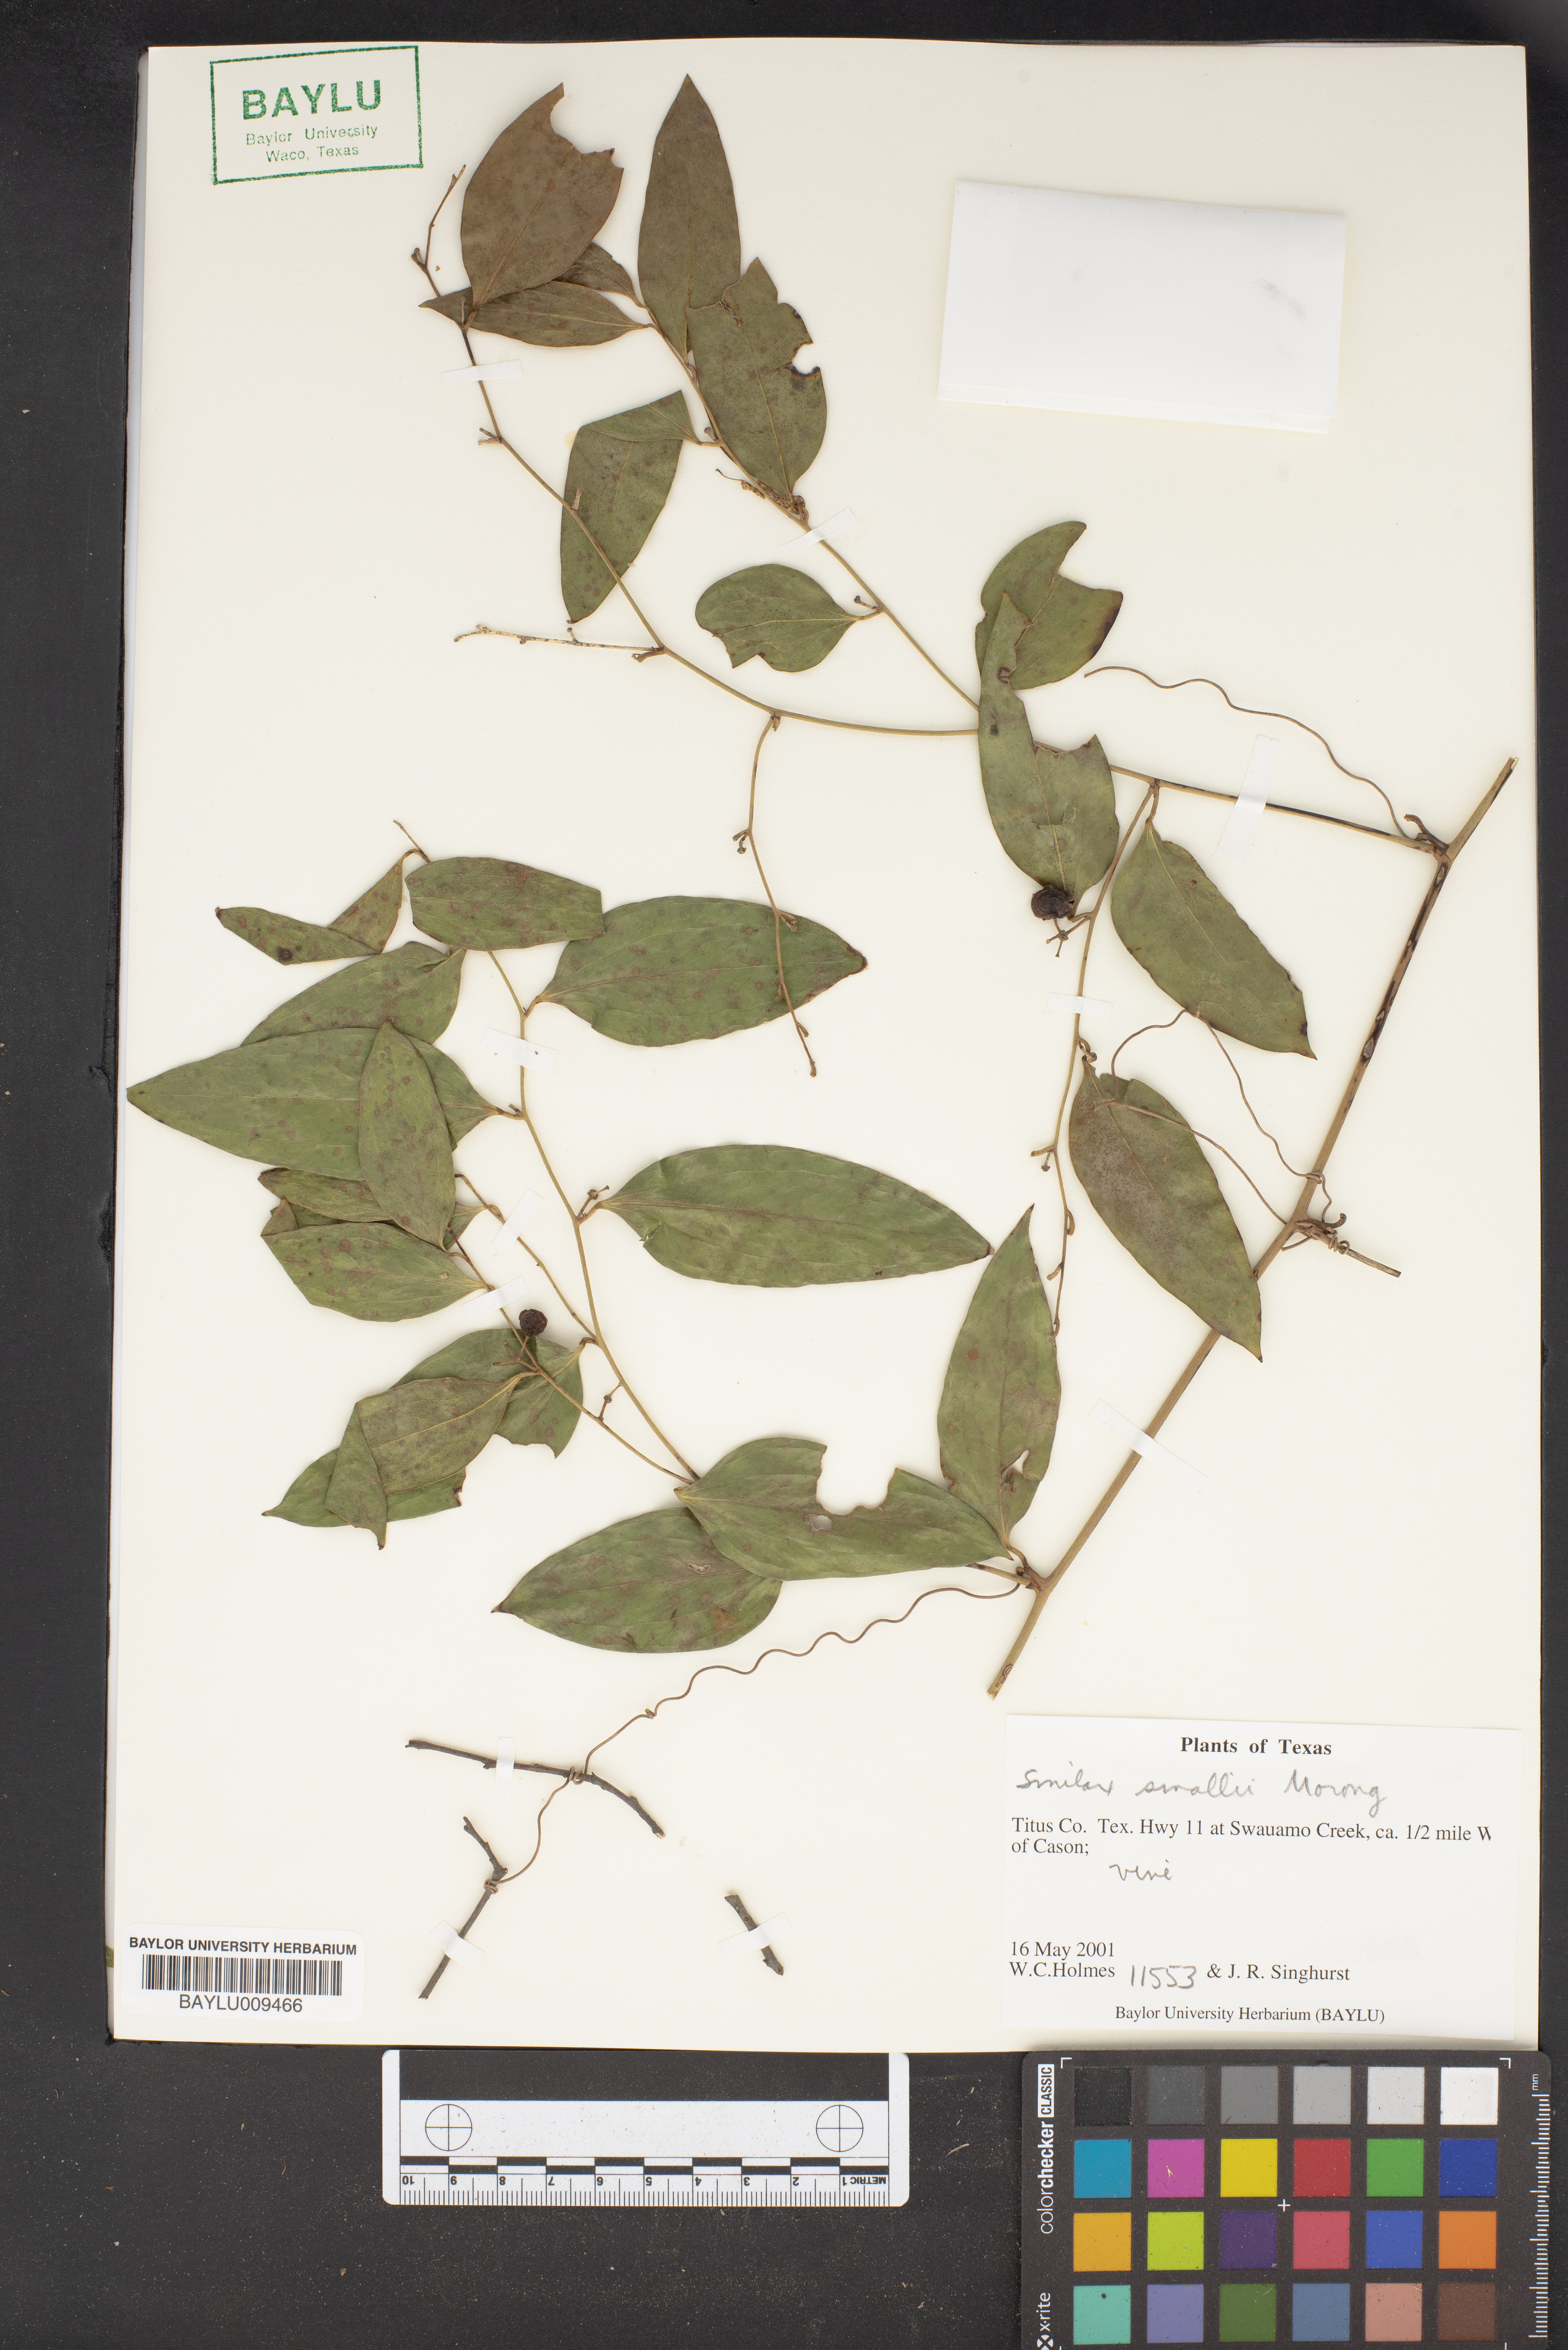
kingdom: Plantae
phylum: Tracheophyta
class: Liliopsida
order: Liliales
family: Smilacaceae
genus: Smilax
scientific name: Smilax maritima
